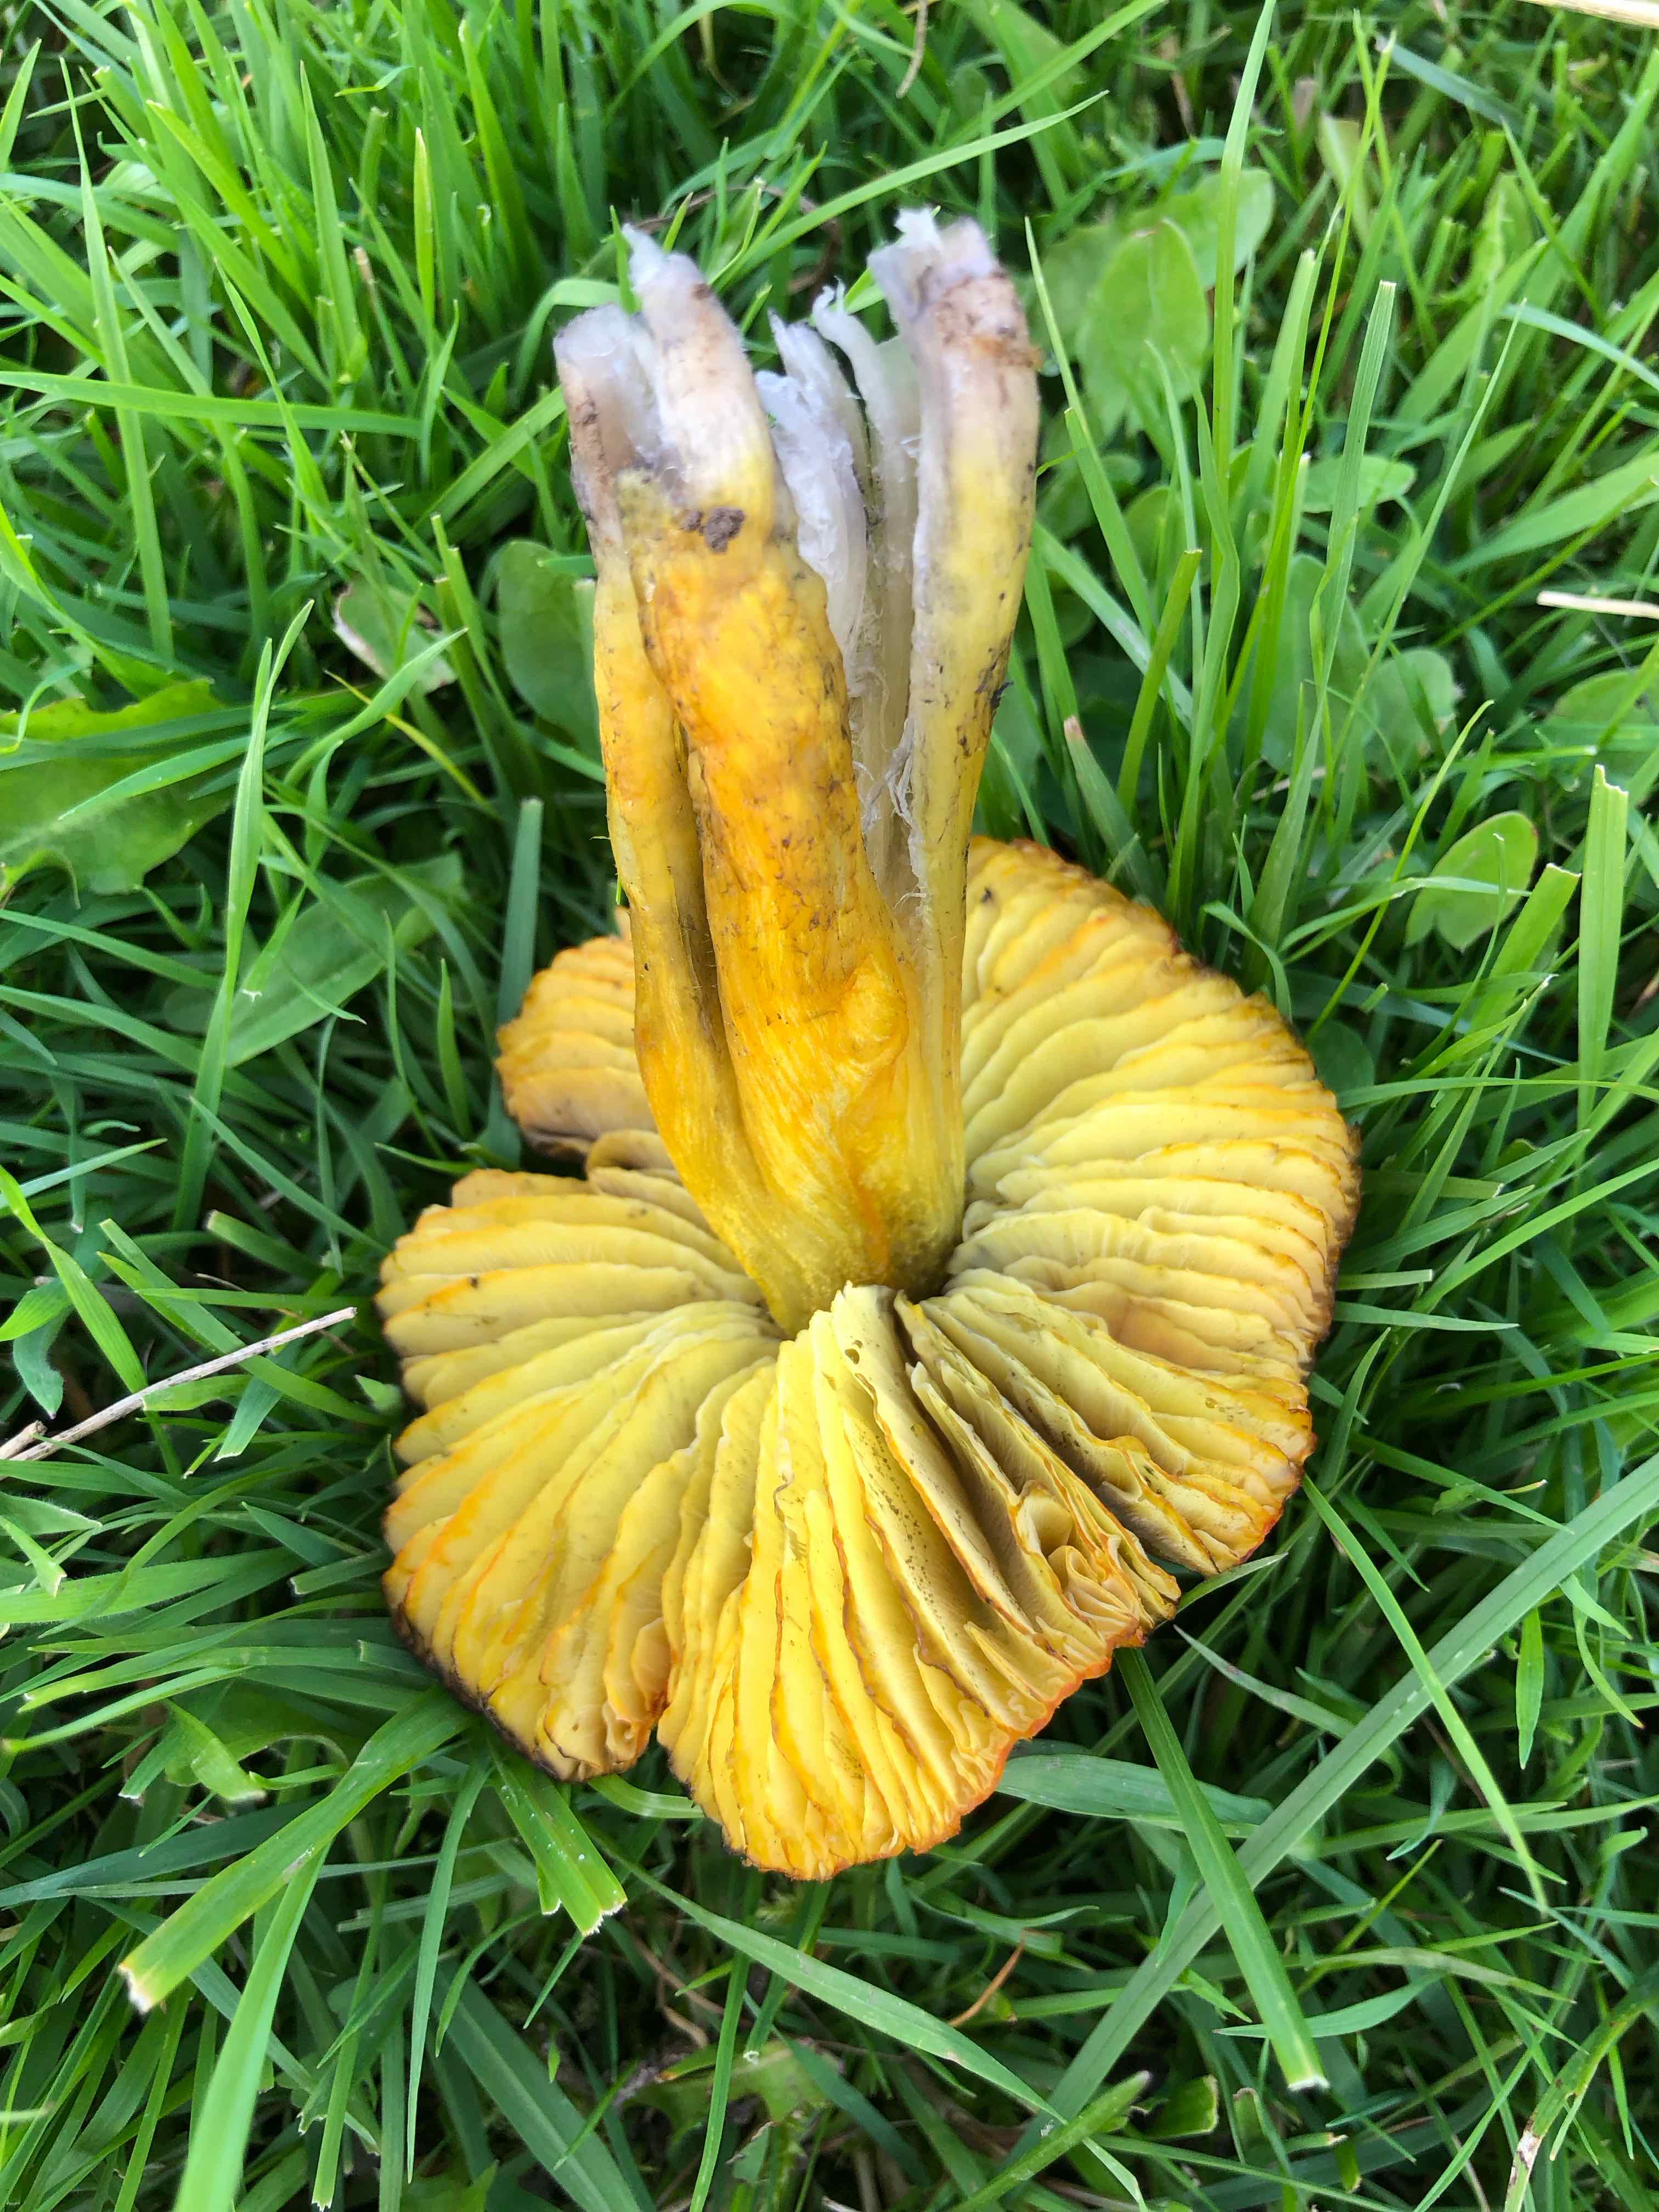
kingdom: Fungi
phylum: Basidiomycota
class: Agaricomycetes
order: Agaricales
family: Hygrophoraceae
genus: Hygrocybe
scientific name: Hygrocybe conica
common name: kegle-vokshat
